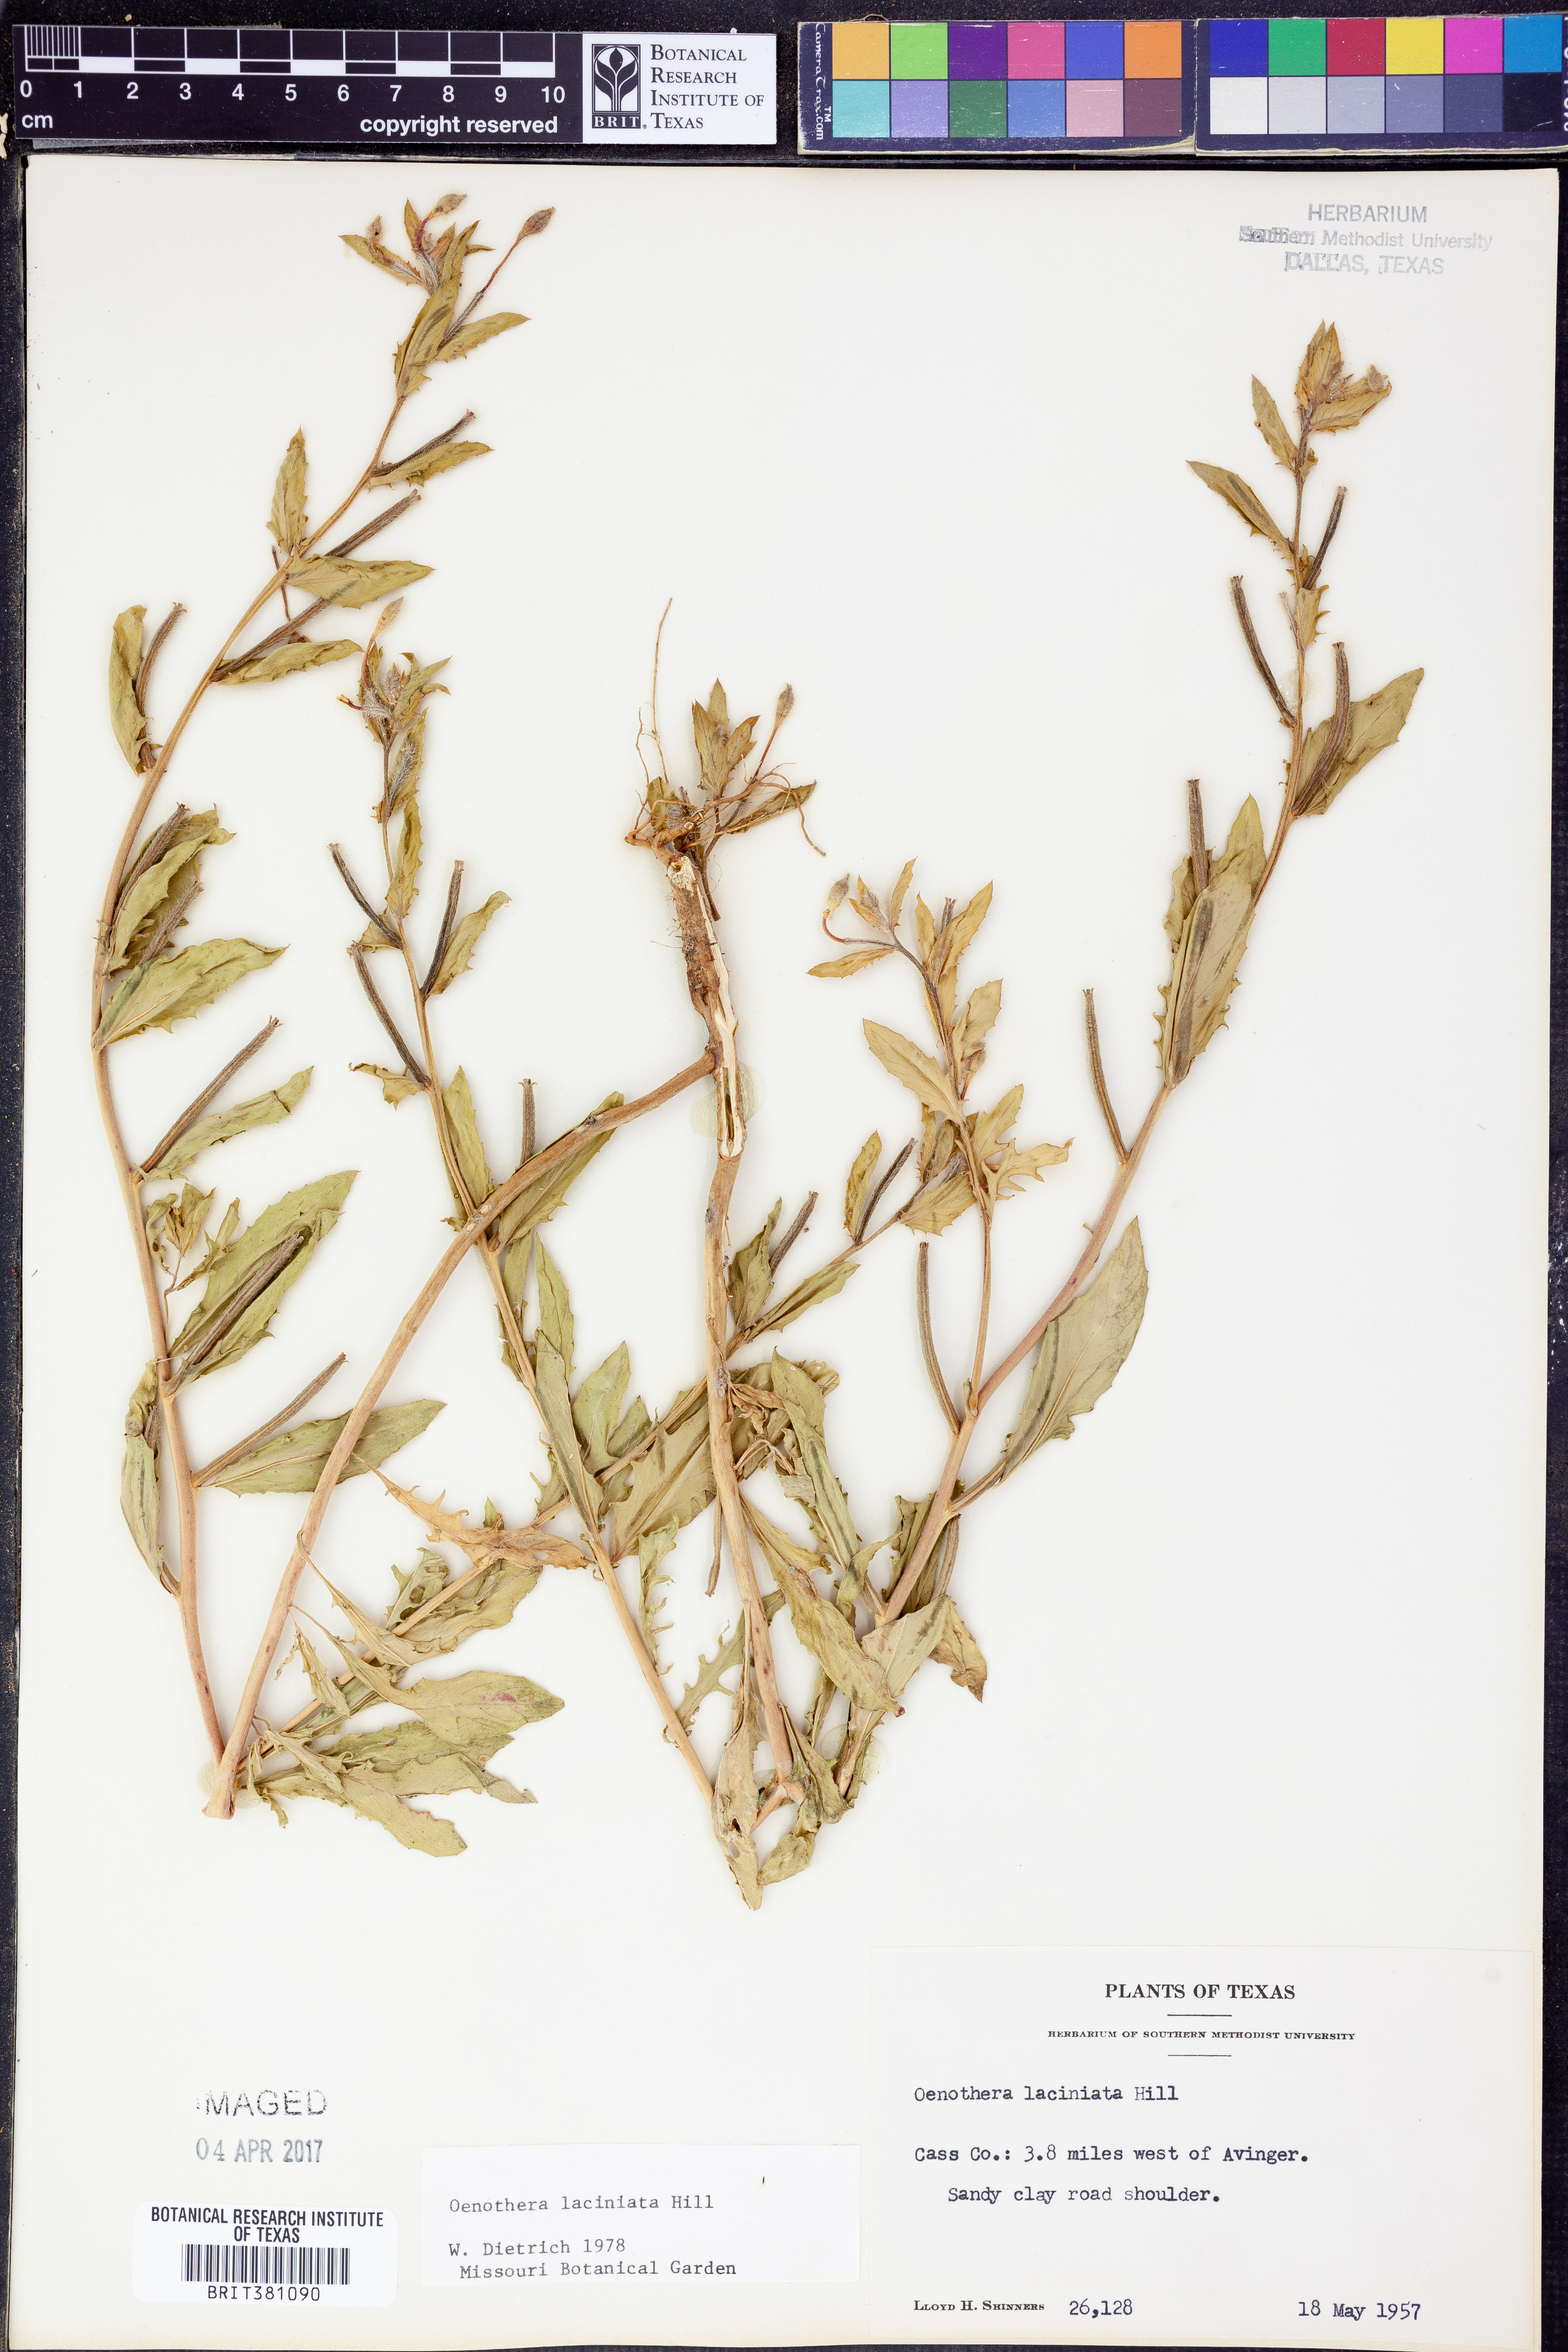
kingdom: Plantae
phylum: Tracheophyta
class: Magnoliopsida
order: Myrtales
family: Onagraceae
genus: Oenothera
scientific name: Oenothera laciniata
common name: Cut-leaved evening-primrose
